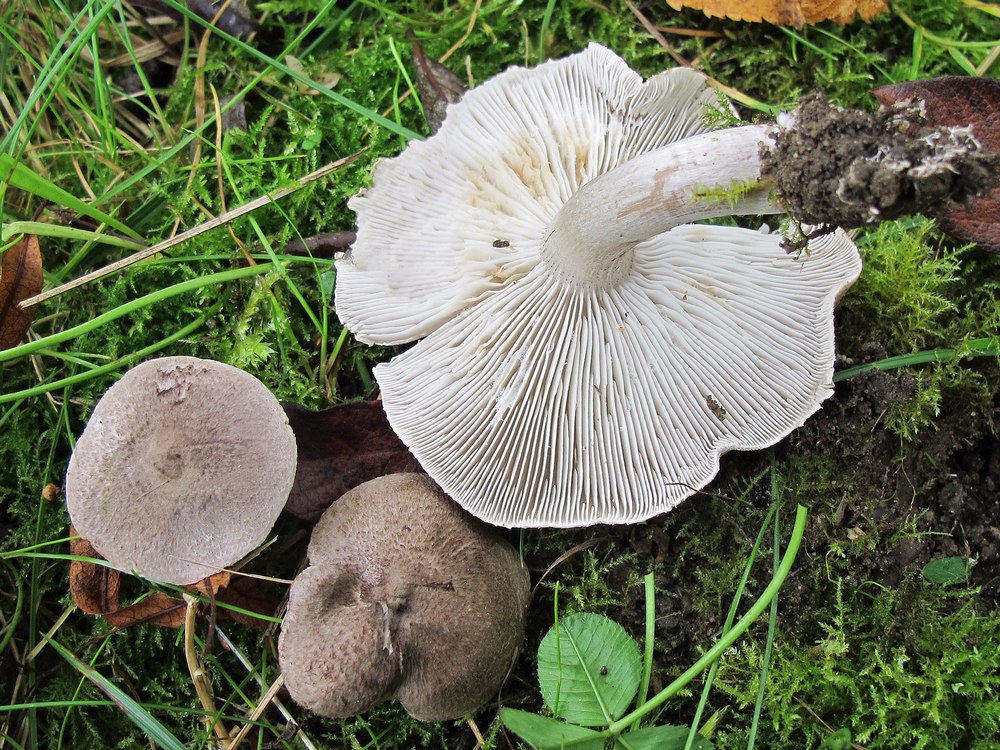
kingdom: Fungi
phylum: Basidiomycota
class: Agaricomycetes
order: Agaricales
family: Tricholomataceae
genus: Tricholoma
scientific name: Tricholoma scalpturatum
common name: gulplettet ridderhat
